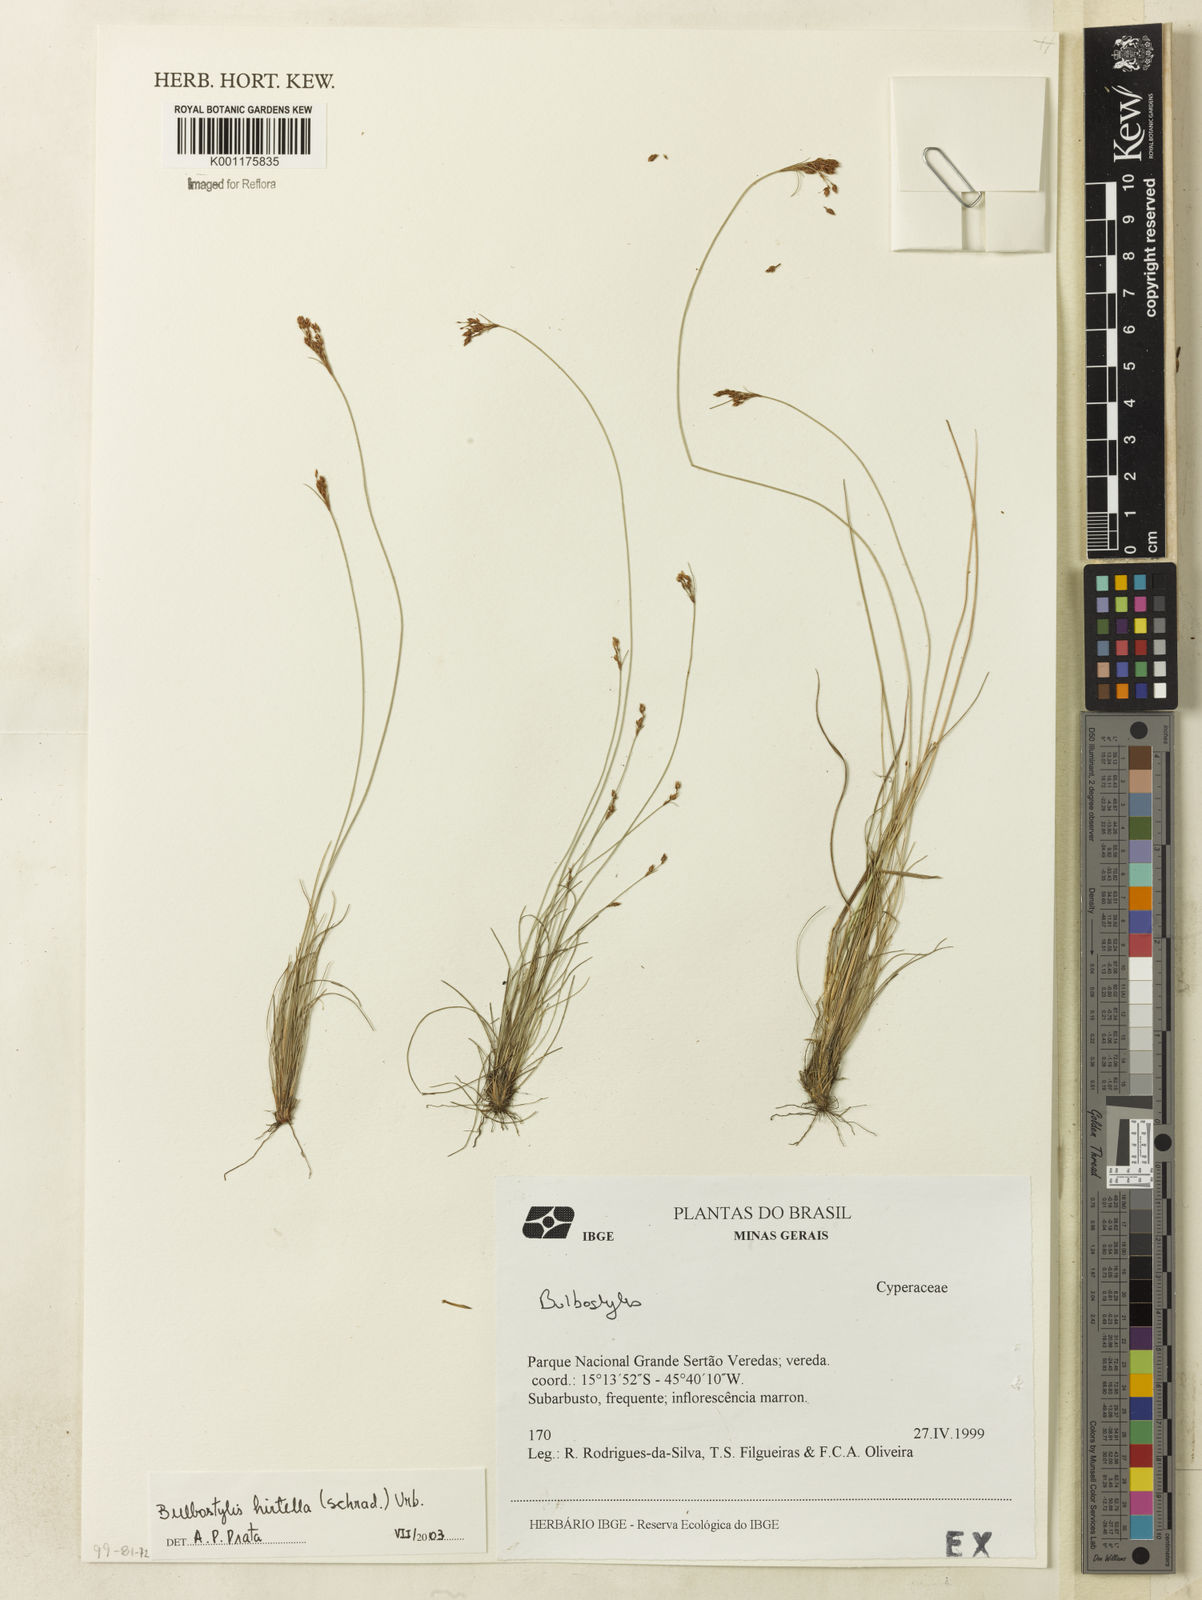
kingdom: Plantae
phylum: Tracheophyta
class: Liliopsida
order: Poales
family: Cyperaceae
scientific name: Cyperaceae
